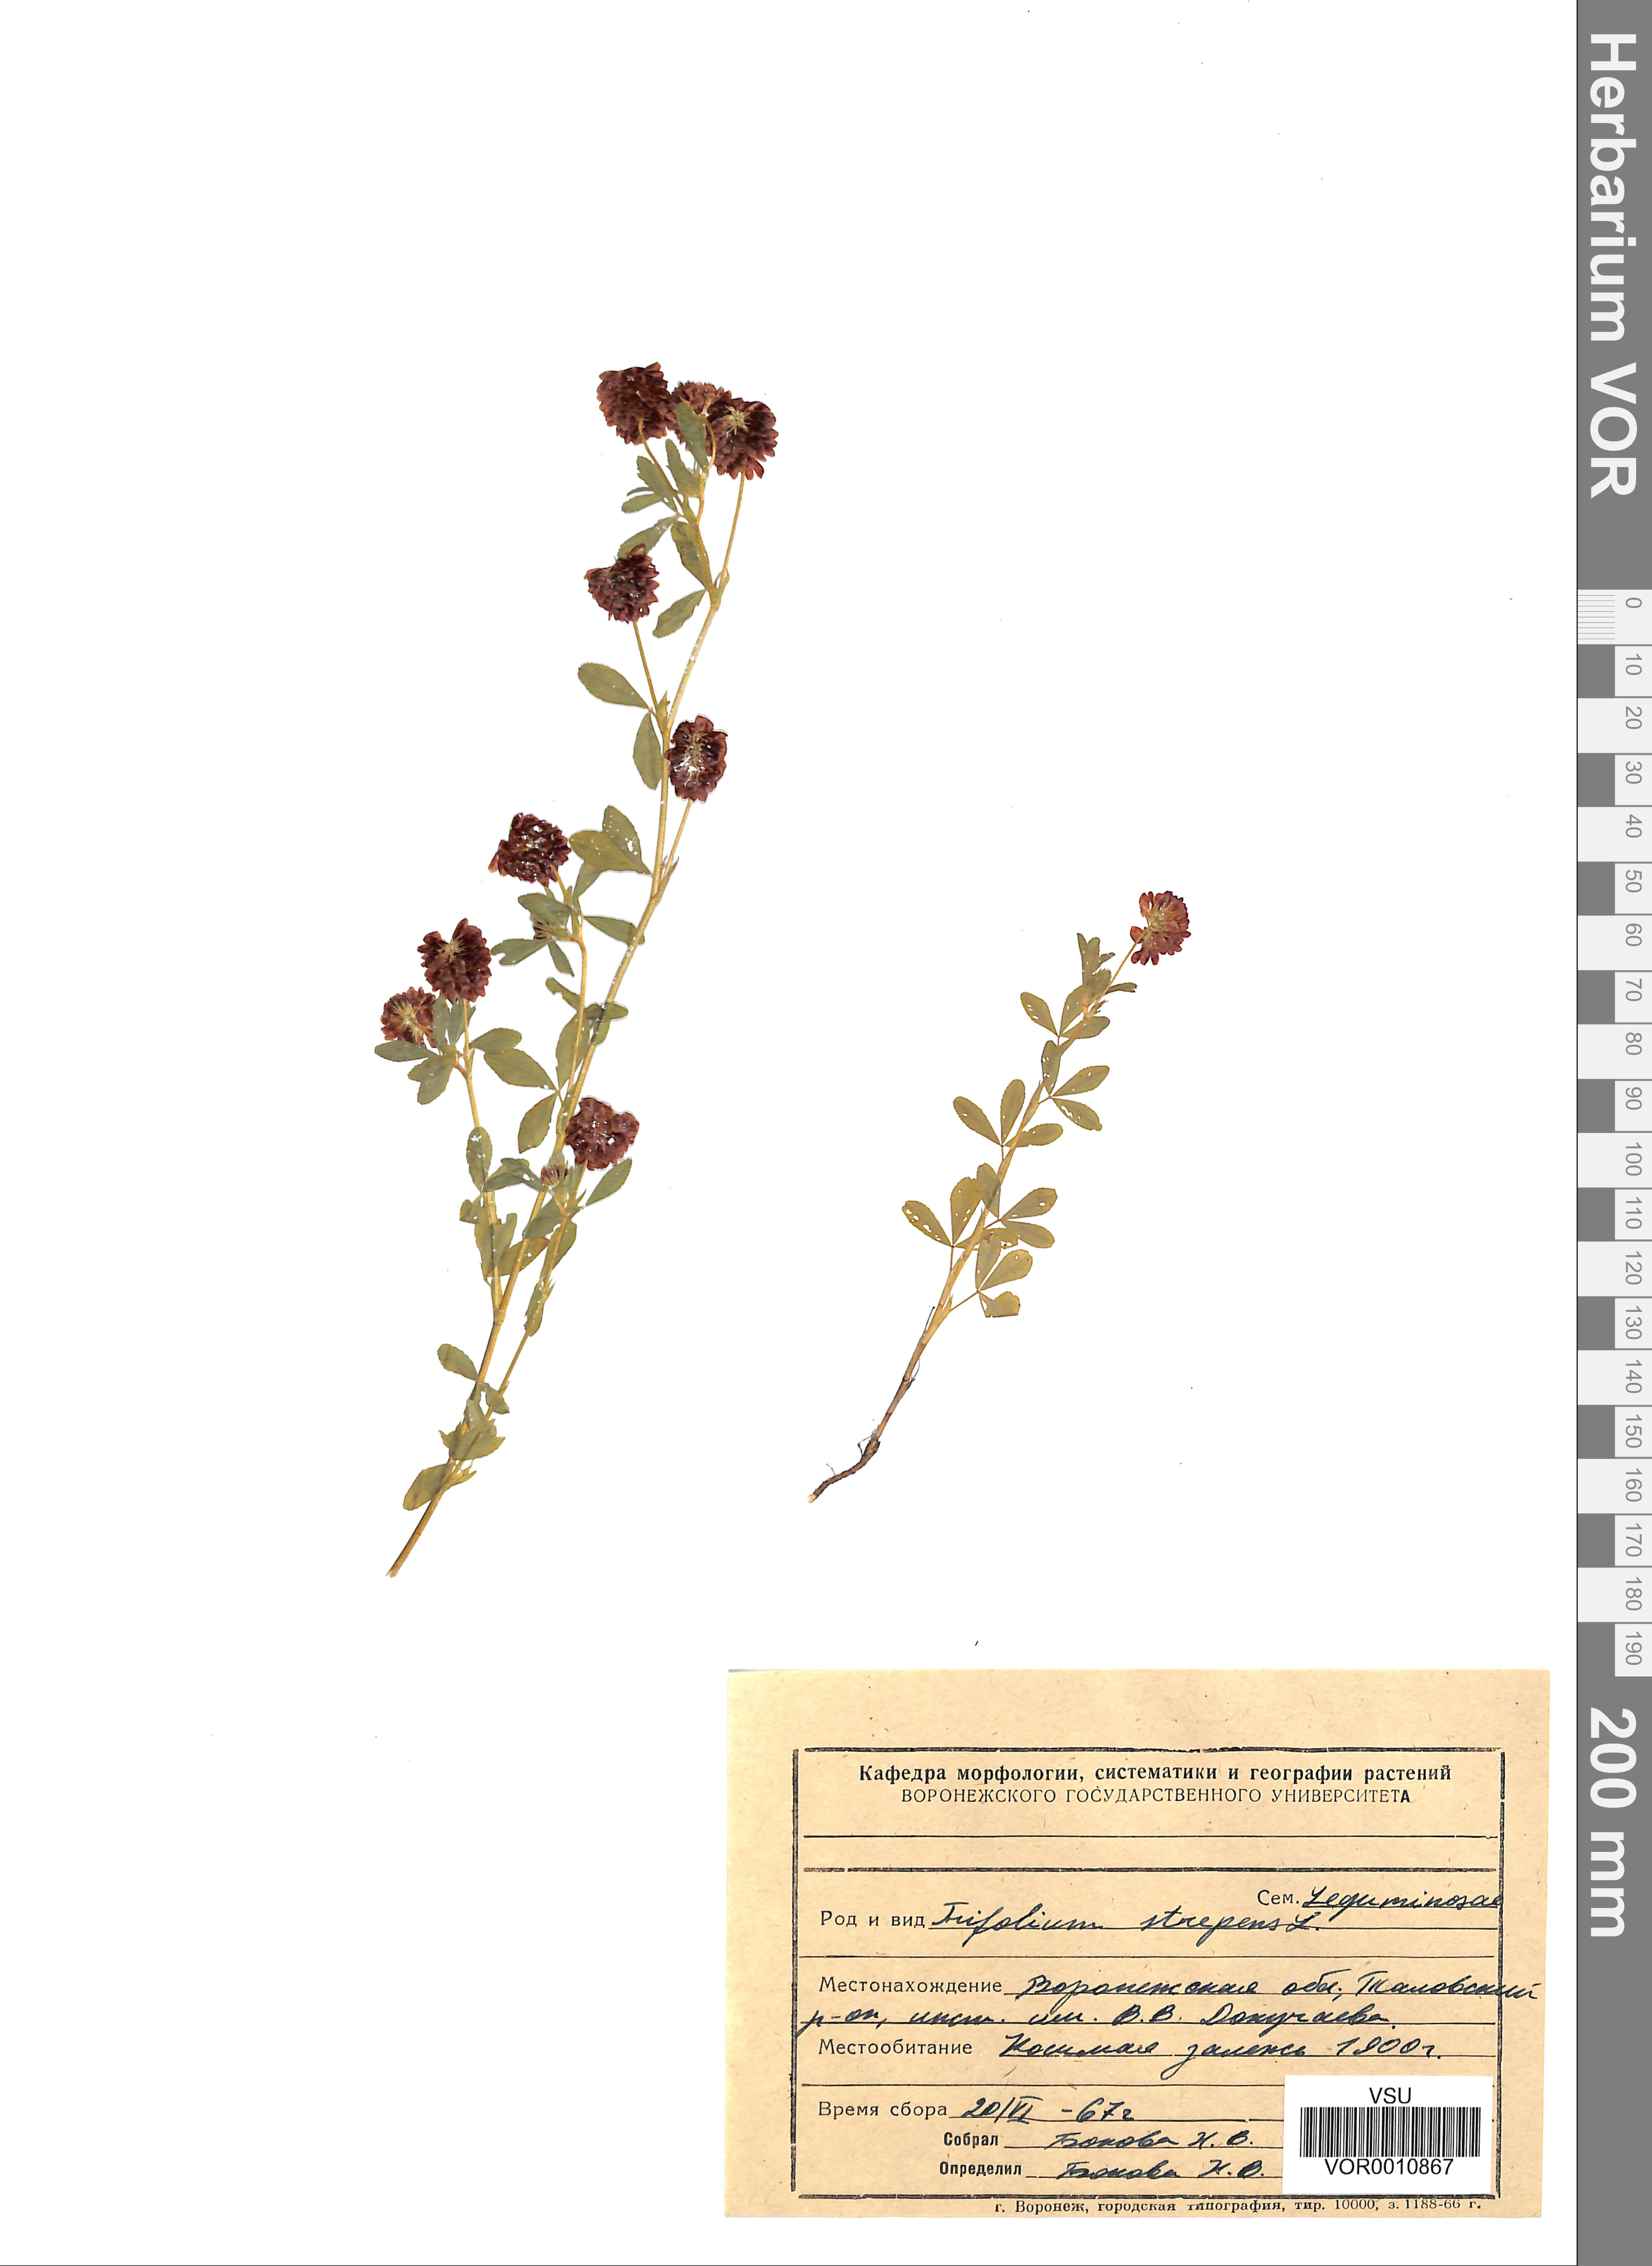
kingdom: Plantae
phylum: Tracheophyta
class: Magnoliopsida
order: Fabales
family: Fabaceae
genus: Trifolium
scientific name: Trifolium aureum
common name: Golden clover
